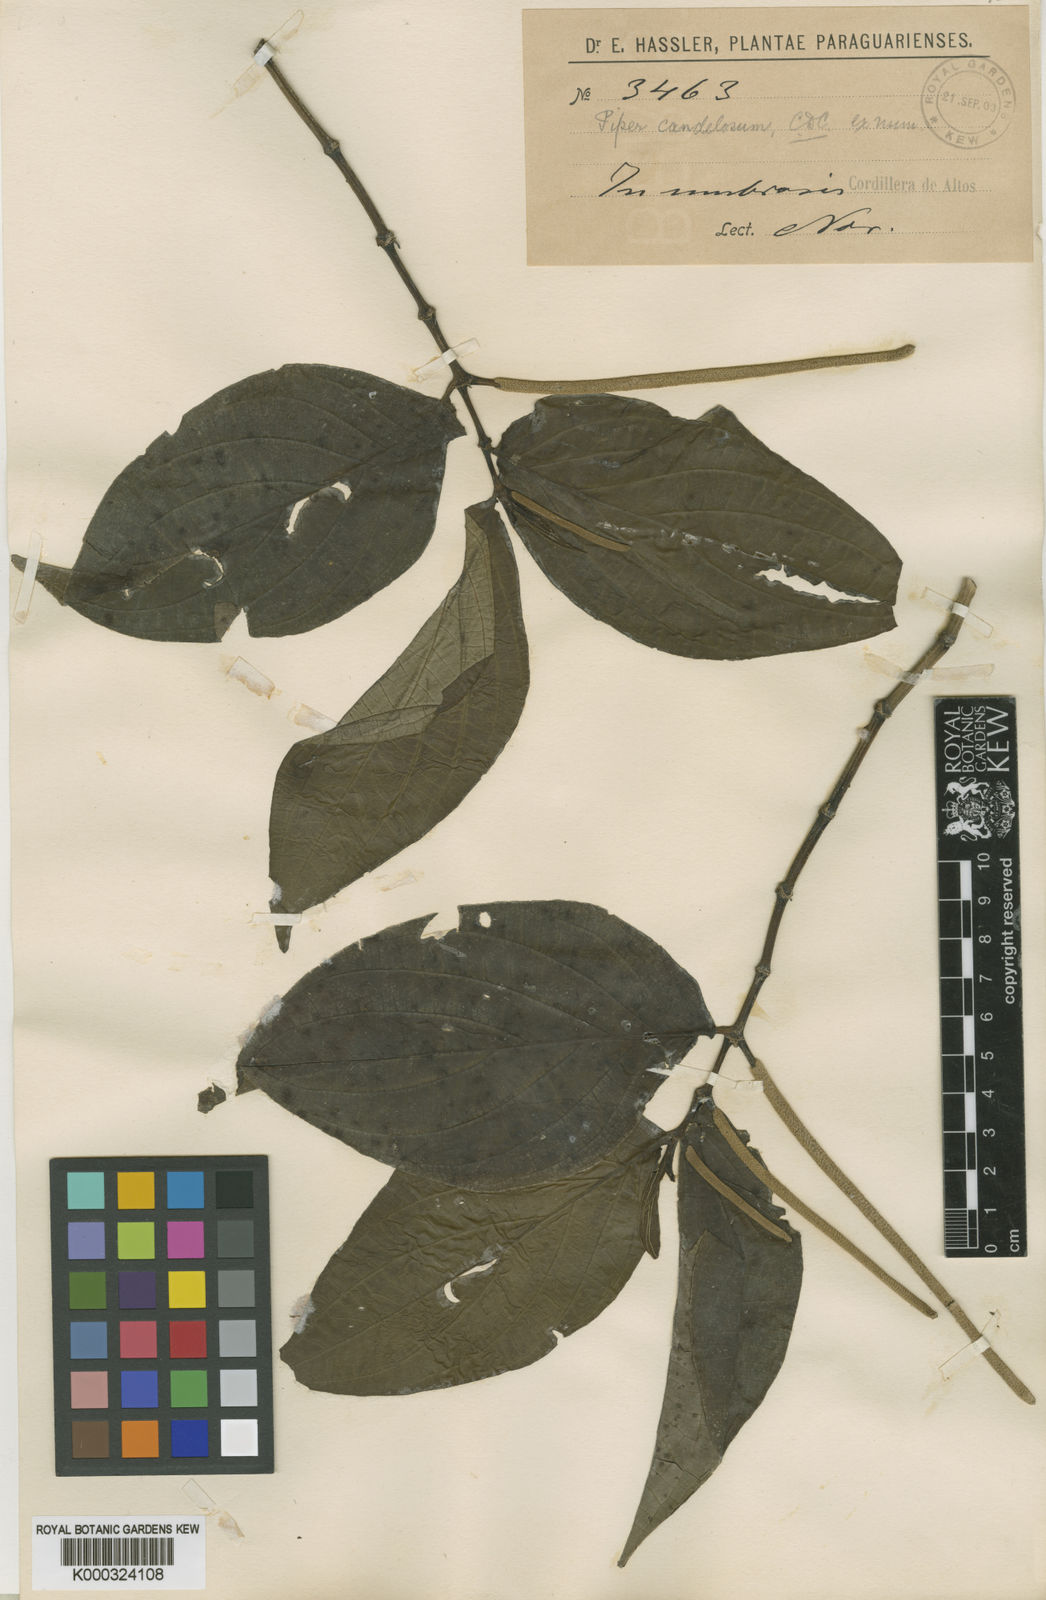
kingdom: Plantae
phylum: Tracheophyta
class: Magnoliopsida
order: Piperales
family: Piperaceae
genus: Piper
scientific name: Piper candelosum
